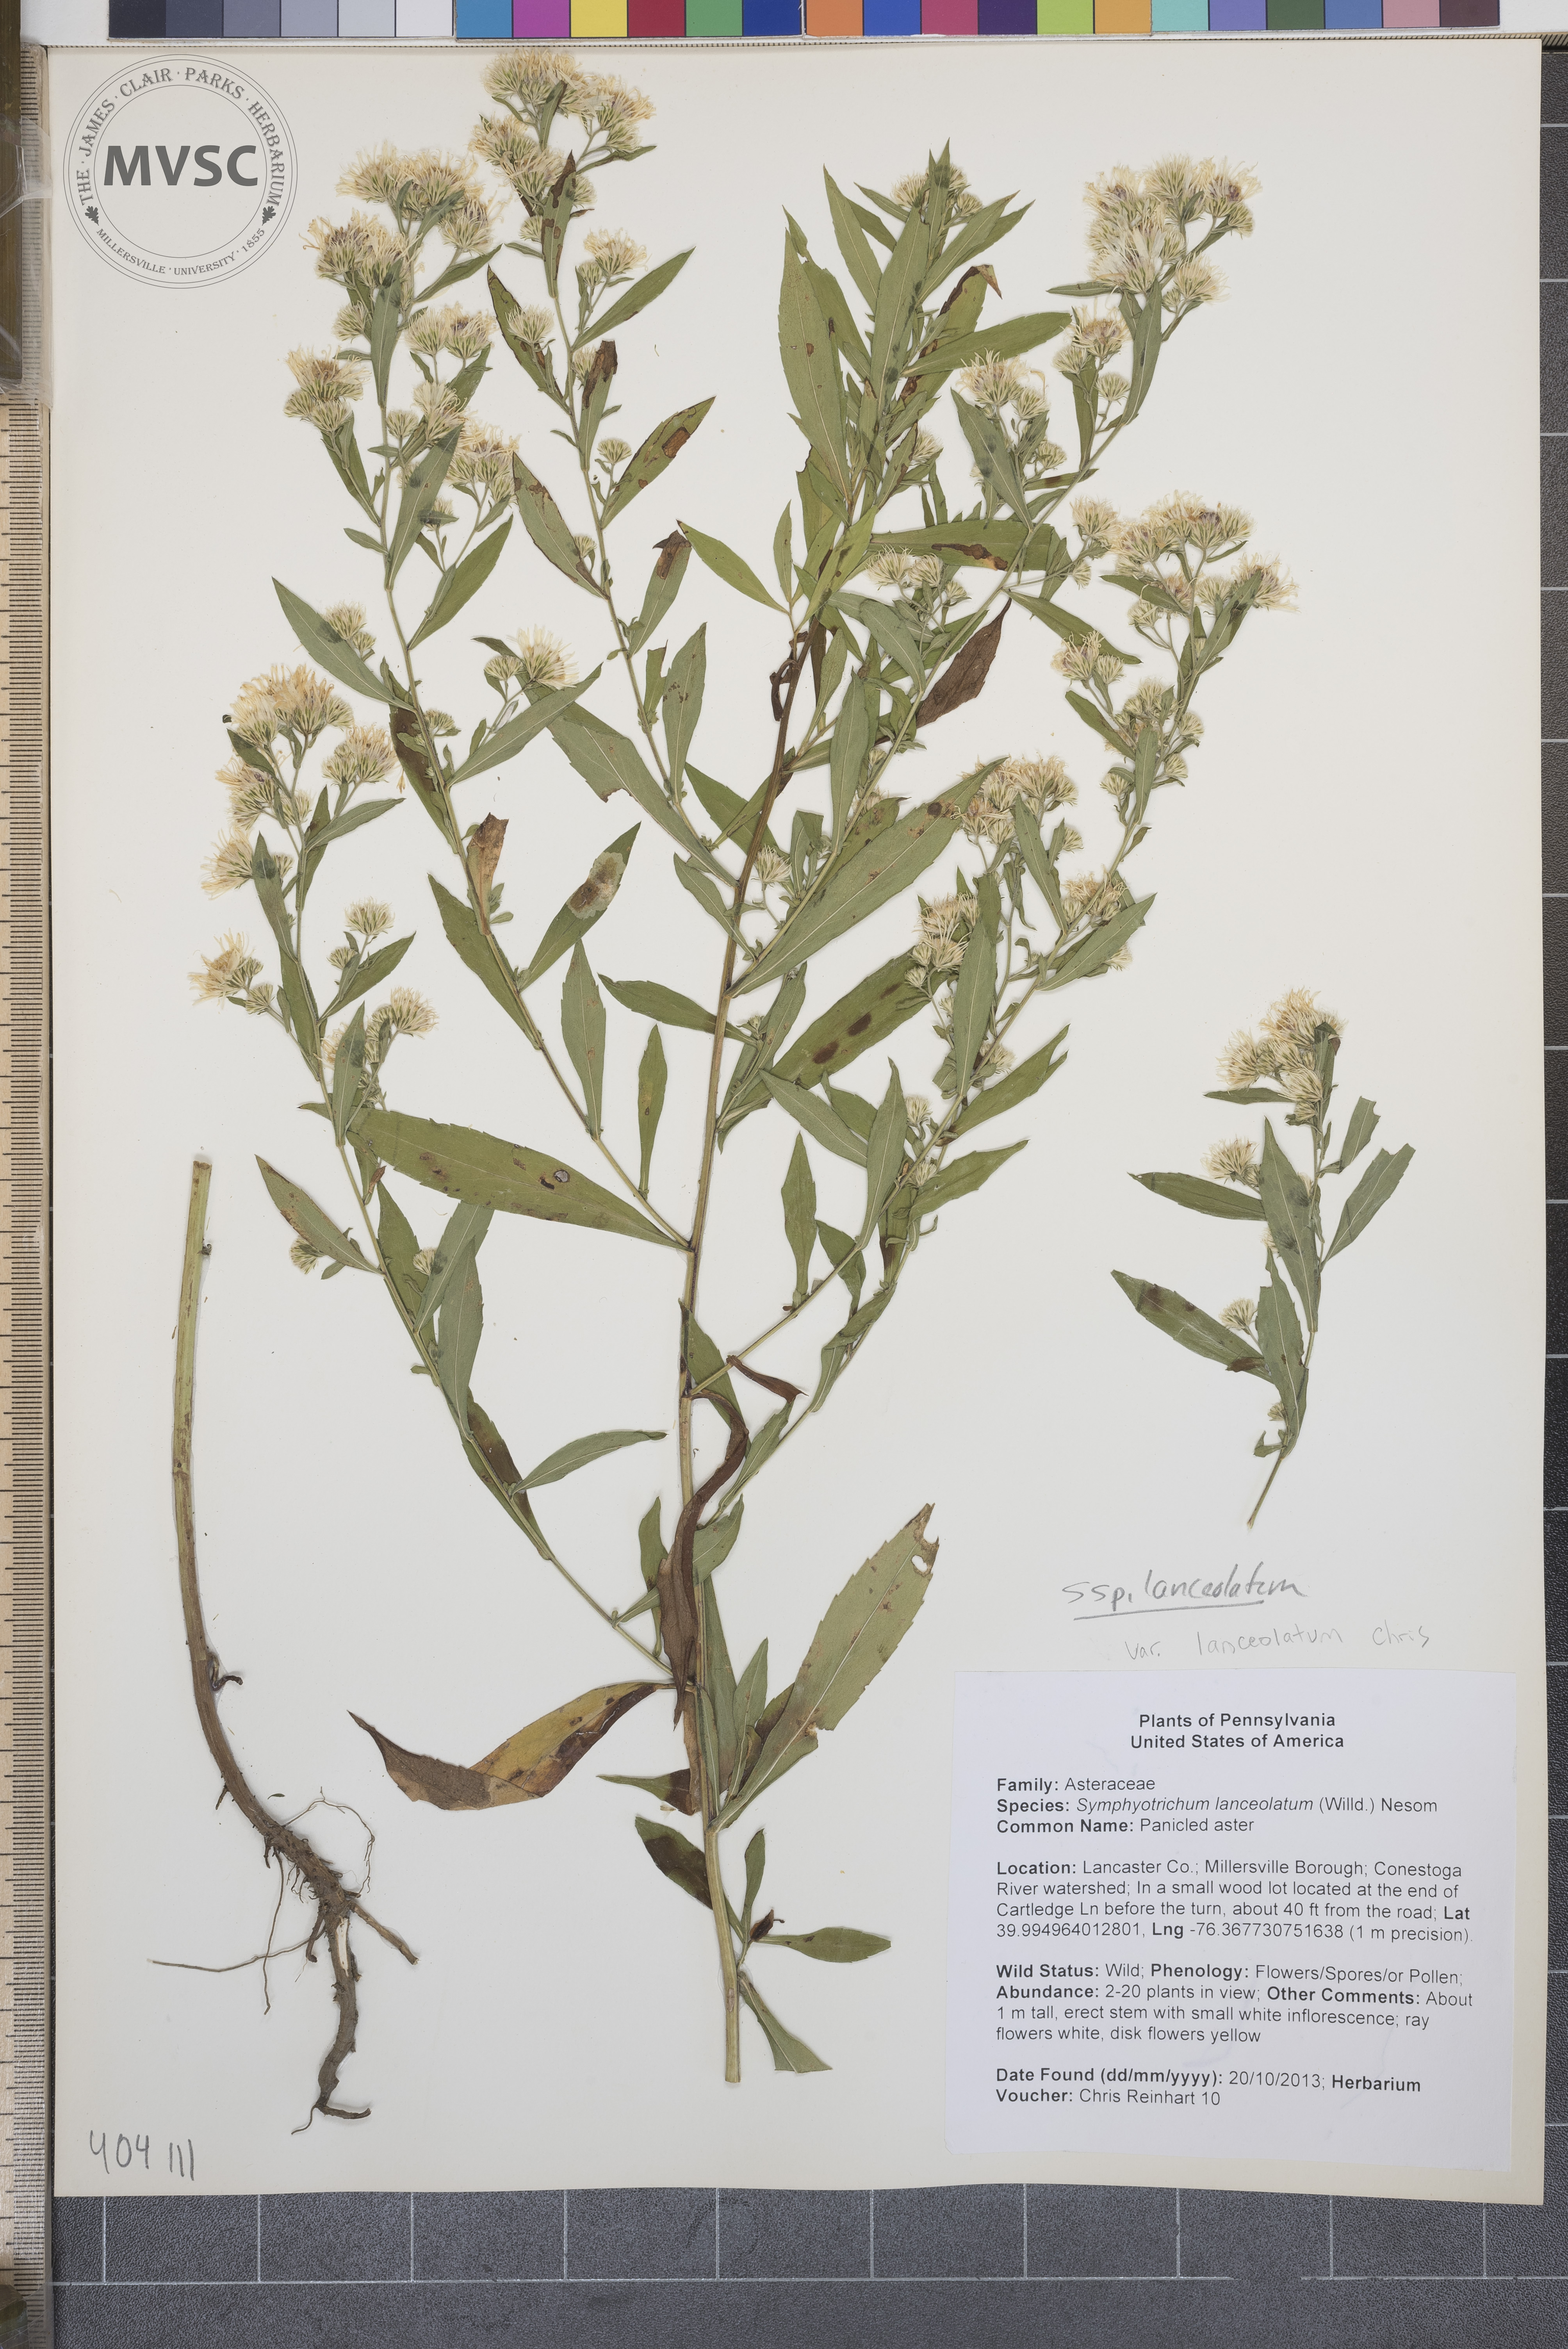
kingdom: Plantae
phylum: Tracheophyta
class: Magnoliopsida
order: Asterales
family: Asteraceae
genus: Symphyotrichum
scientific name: Symphyotrichum lanceolatum
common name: Panicled aster
